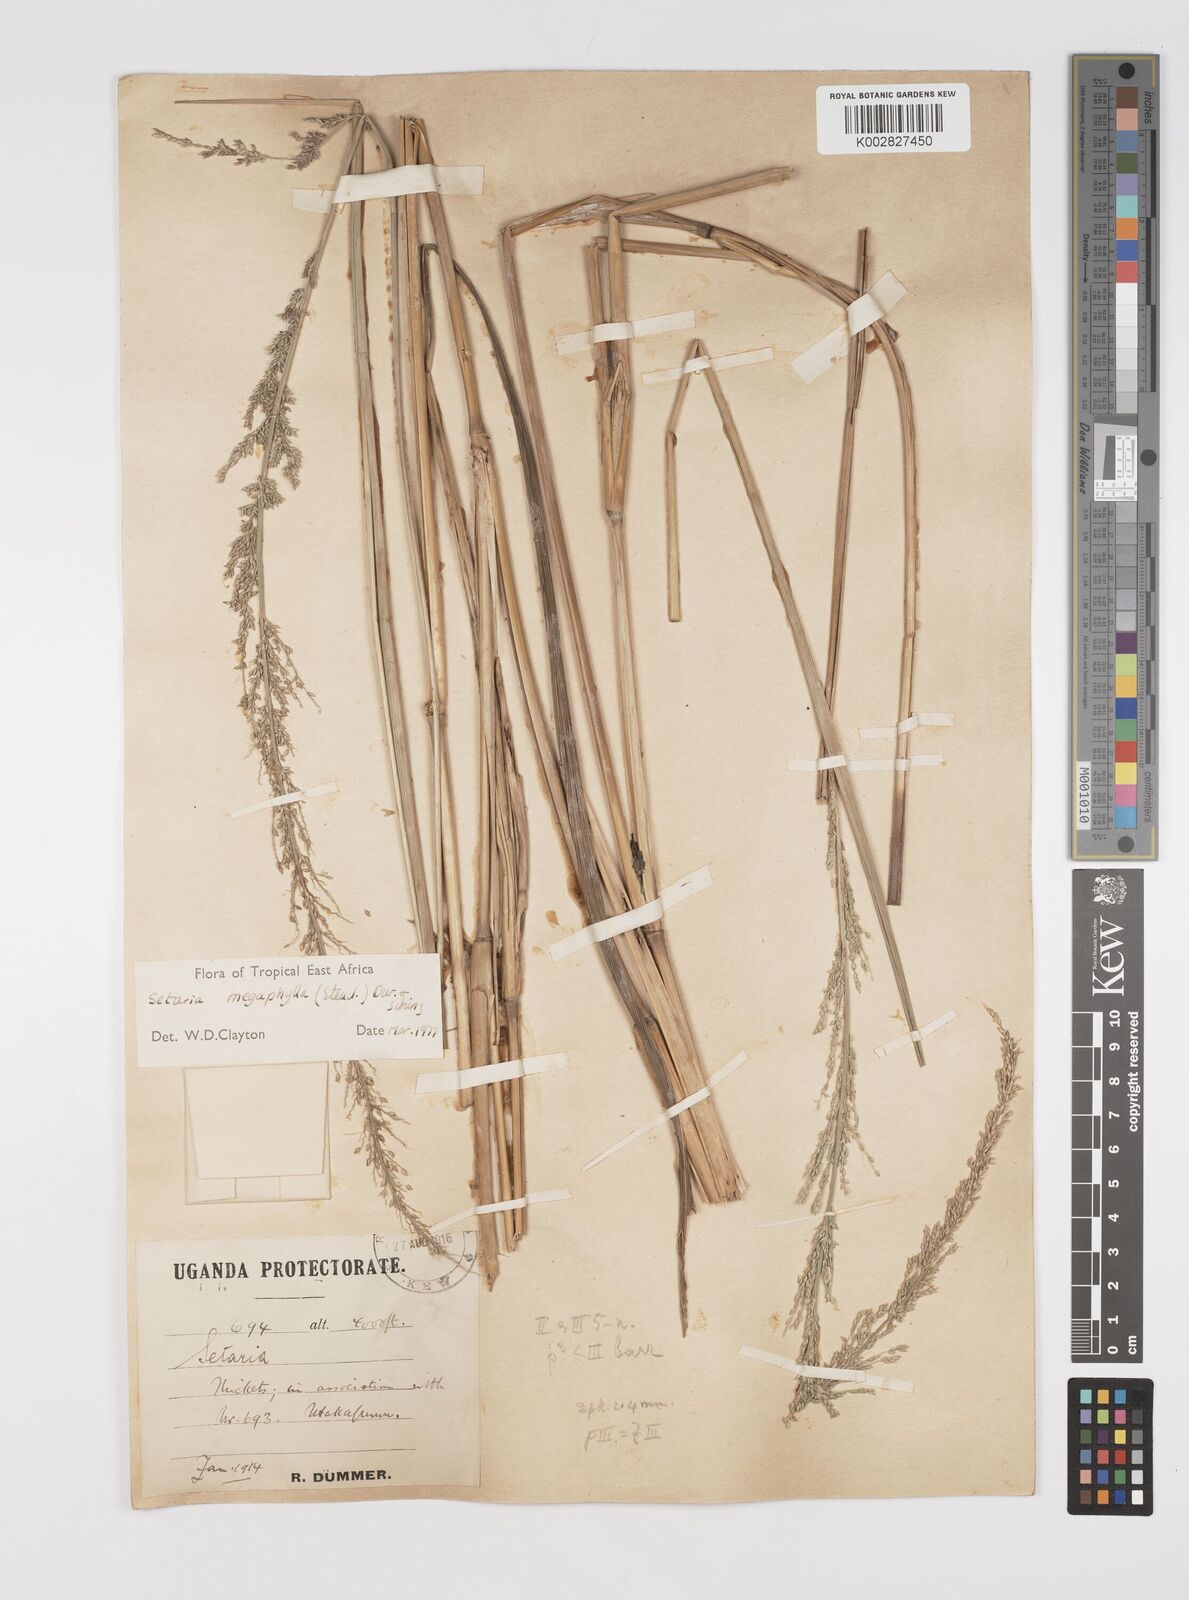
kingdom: Plantae
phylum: Tracheophyta
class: Liliopsida
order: Poales
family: Poaceae
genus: Setaria
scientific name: Setaria megaphylla
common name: Bigleaf bristlegrass
